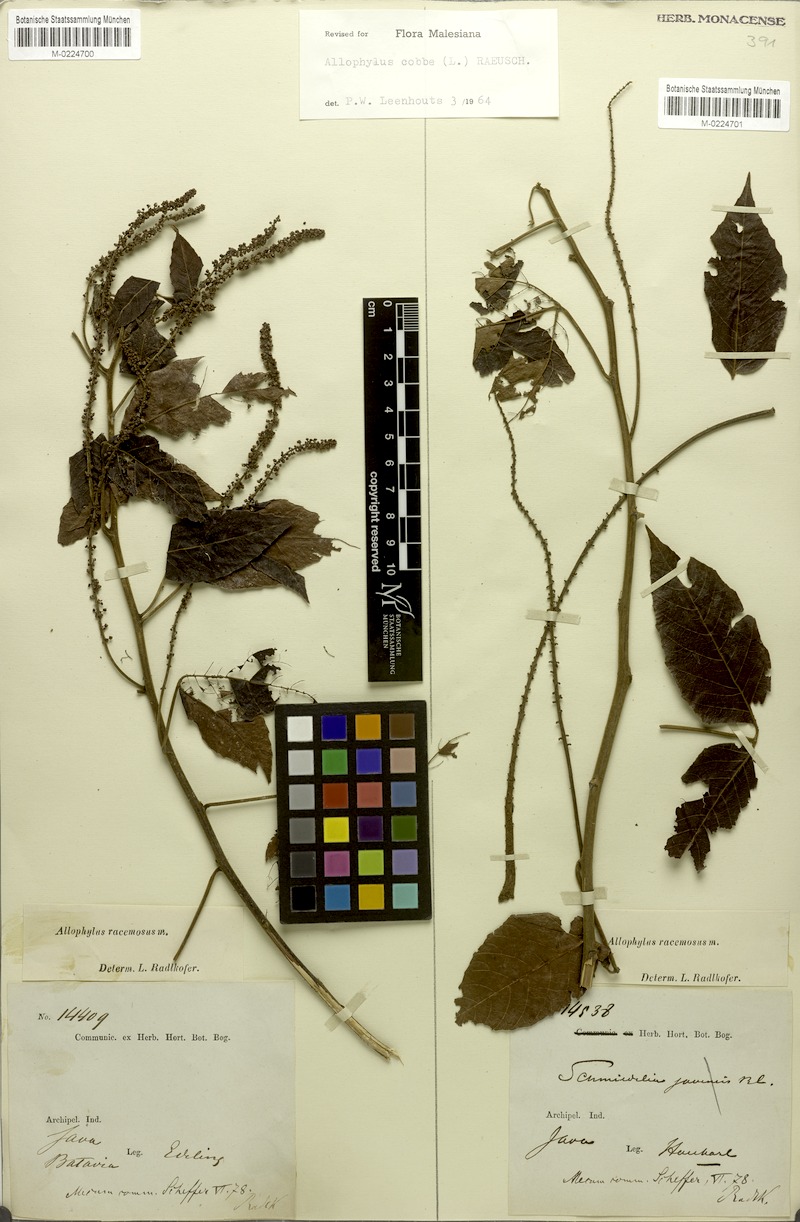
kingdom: Plantae
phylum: Tracheophyta
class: Magnoliopsida
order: Sapindales
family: Sapindaceae
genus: Allophylus
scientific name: Allophylus racemosus
